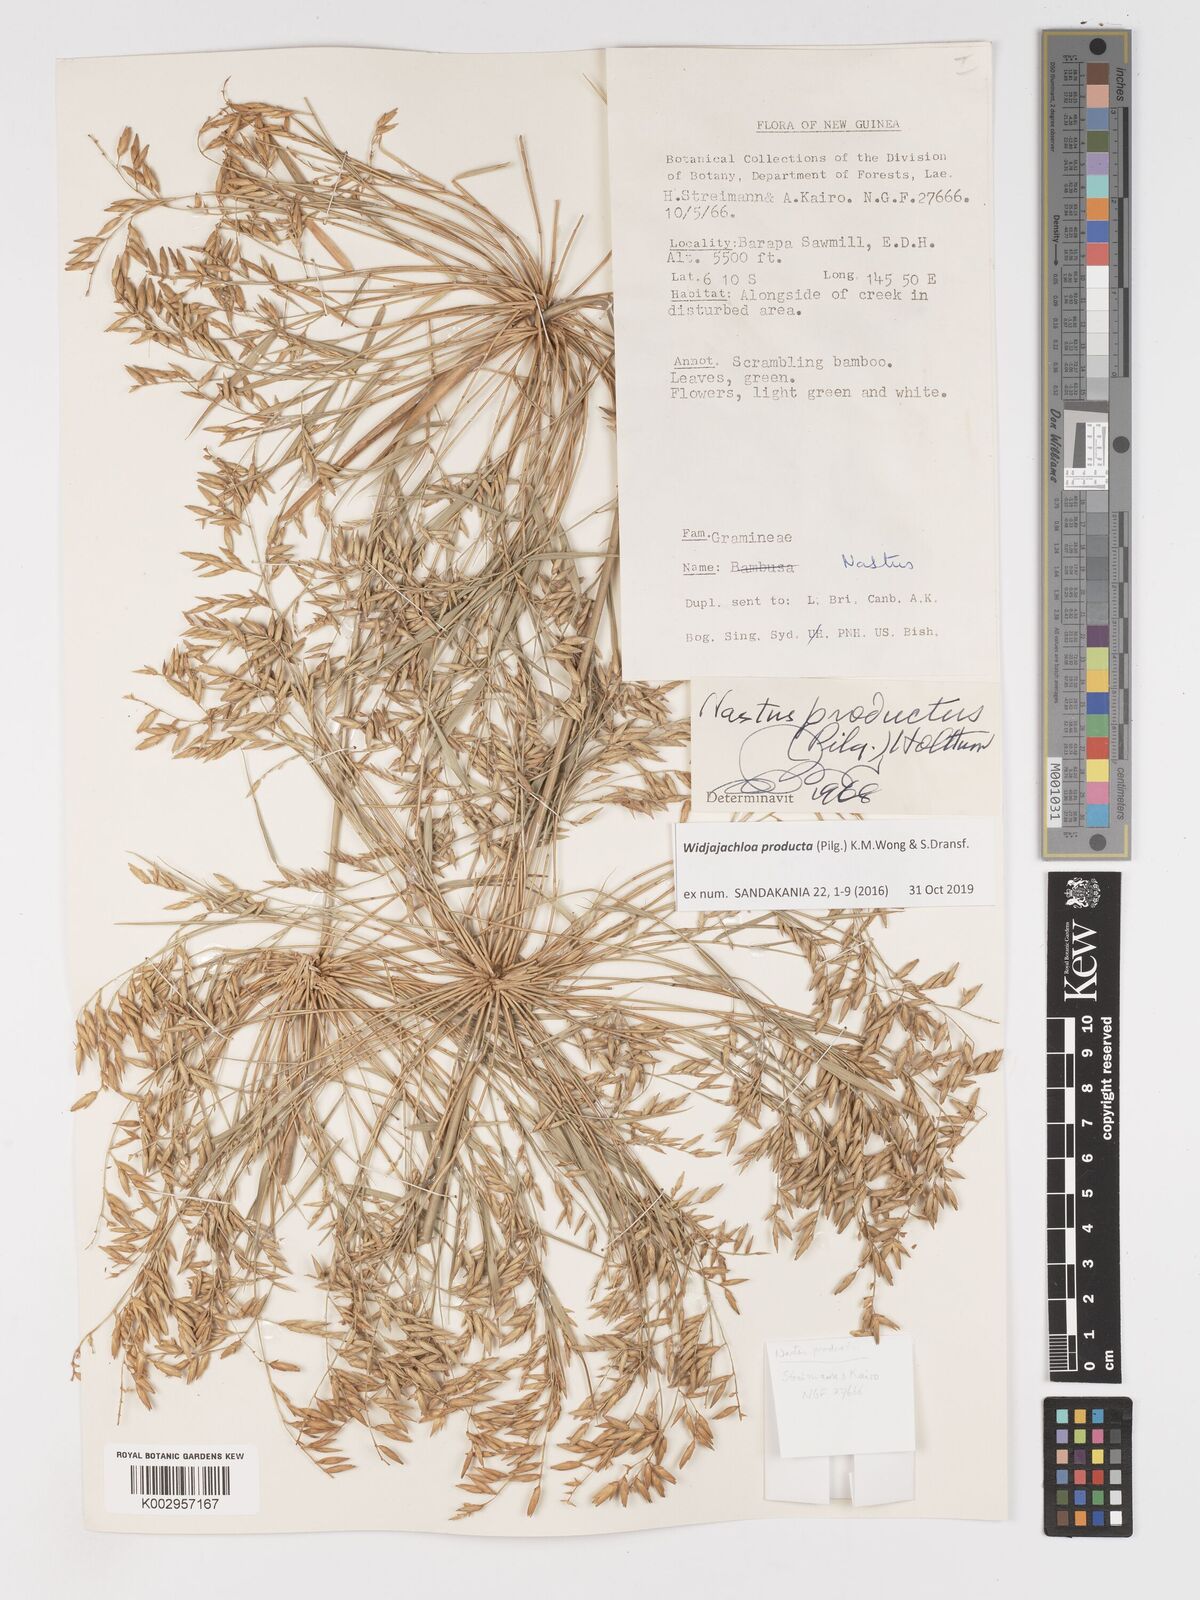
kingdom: Plantae
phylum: Tracheophyta
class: Liliopsida
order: Poales
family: Poaceae
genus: Widjajachloa
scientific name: Widjajachloa producta
